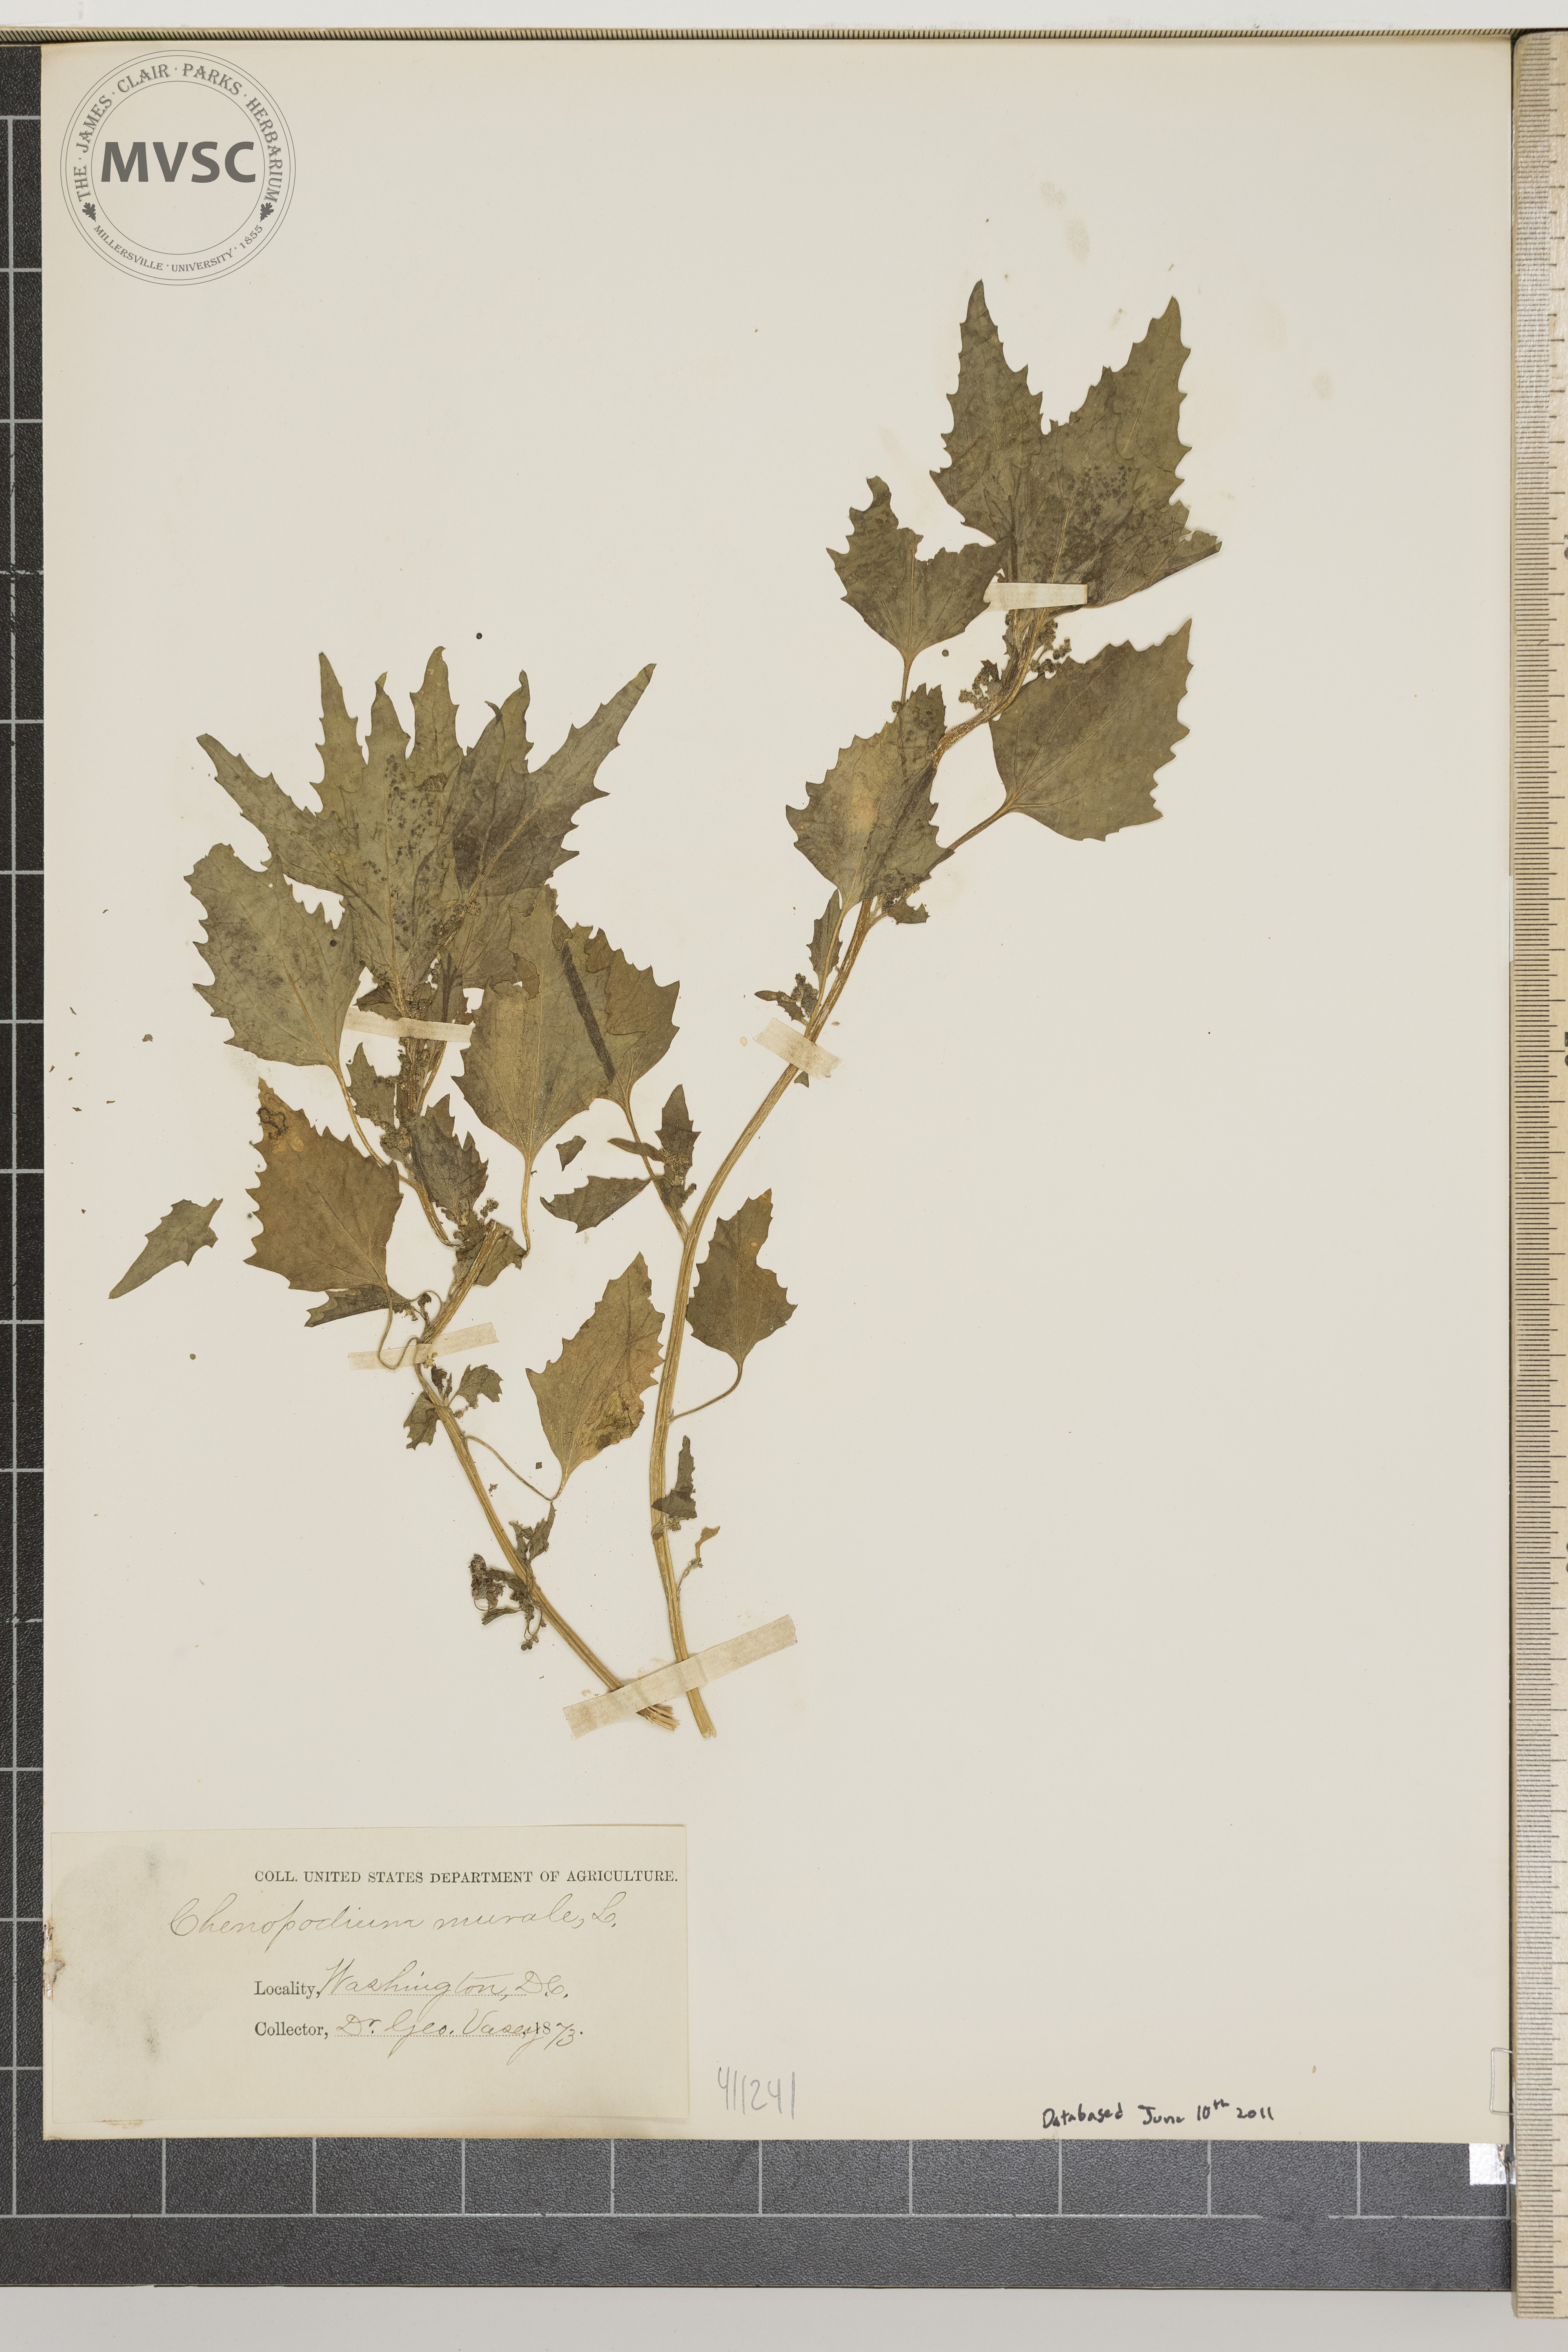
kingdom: Plantae
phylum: Tracheophyta
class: Magnoliopsida
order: Caryophyllales
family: Amaranthaceae
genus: Chenopodiastrum
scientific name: Chenopodiastrum murale
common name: Sowbane
